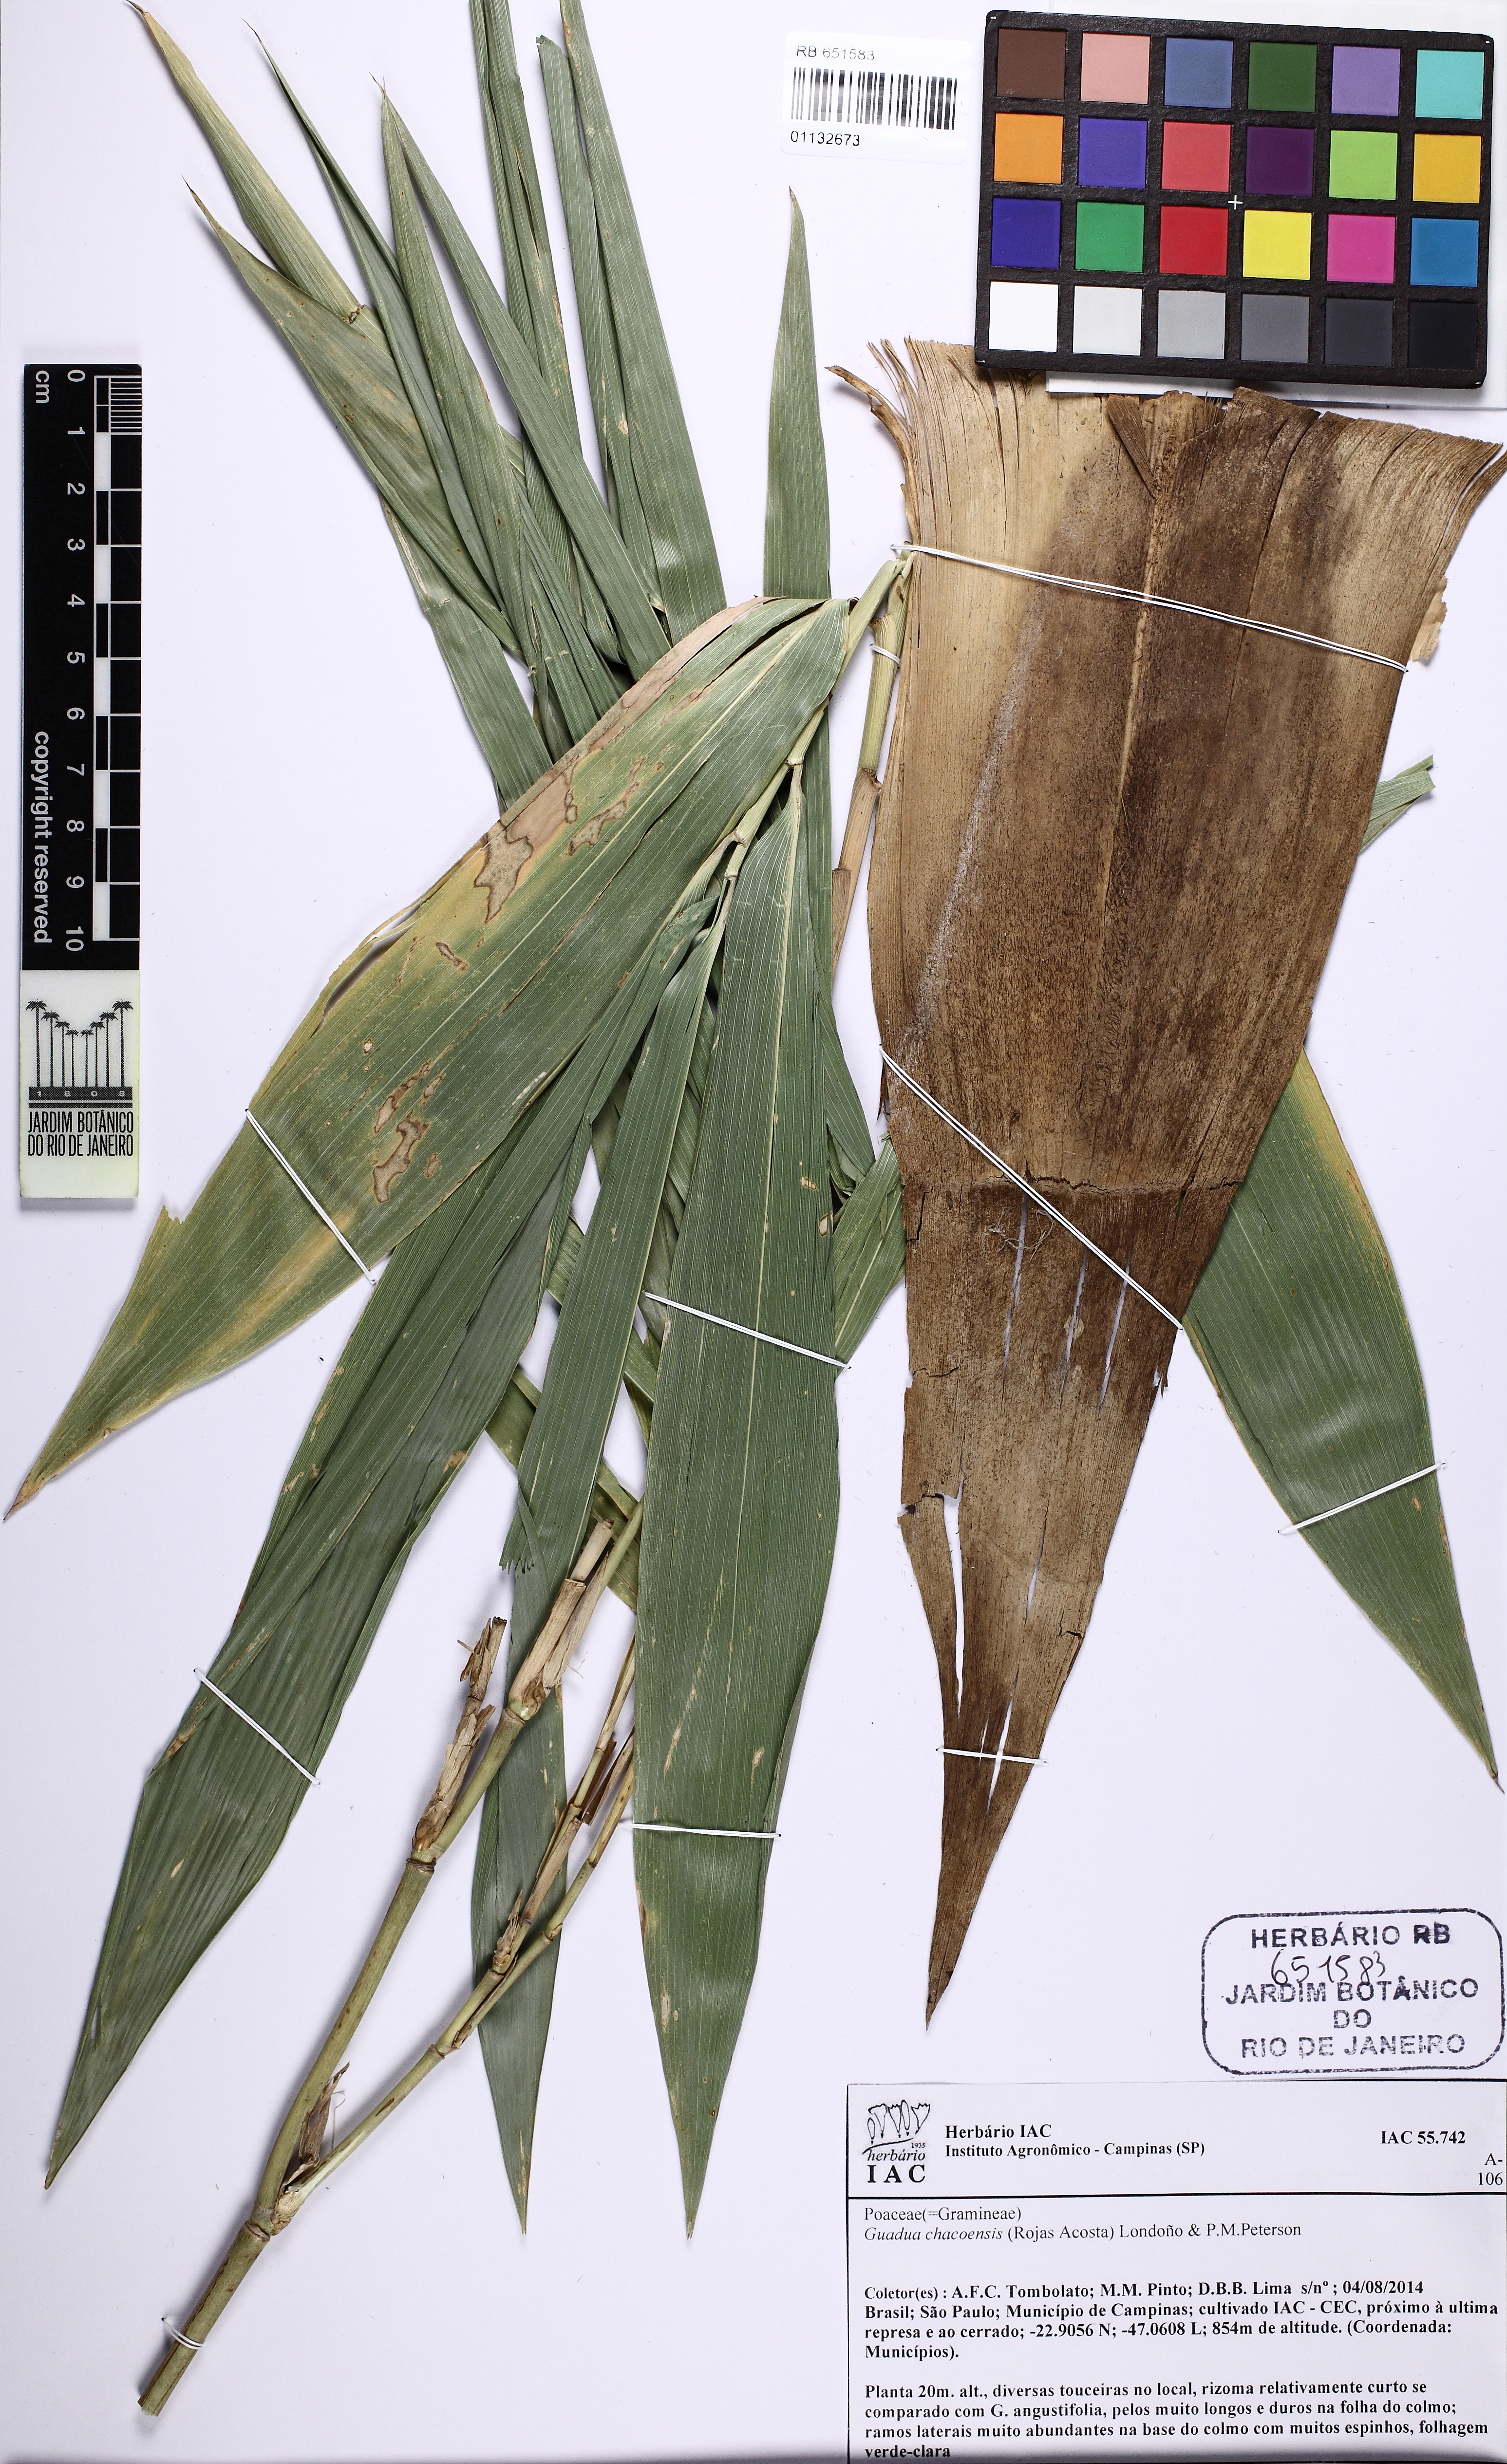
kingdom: Plantae
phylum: Tracheophyta
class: Liliopsida
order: Poales
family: Poaceae
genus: Guadua
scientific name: Guadua chacoensis
